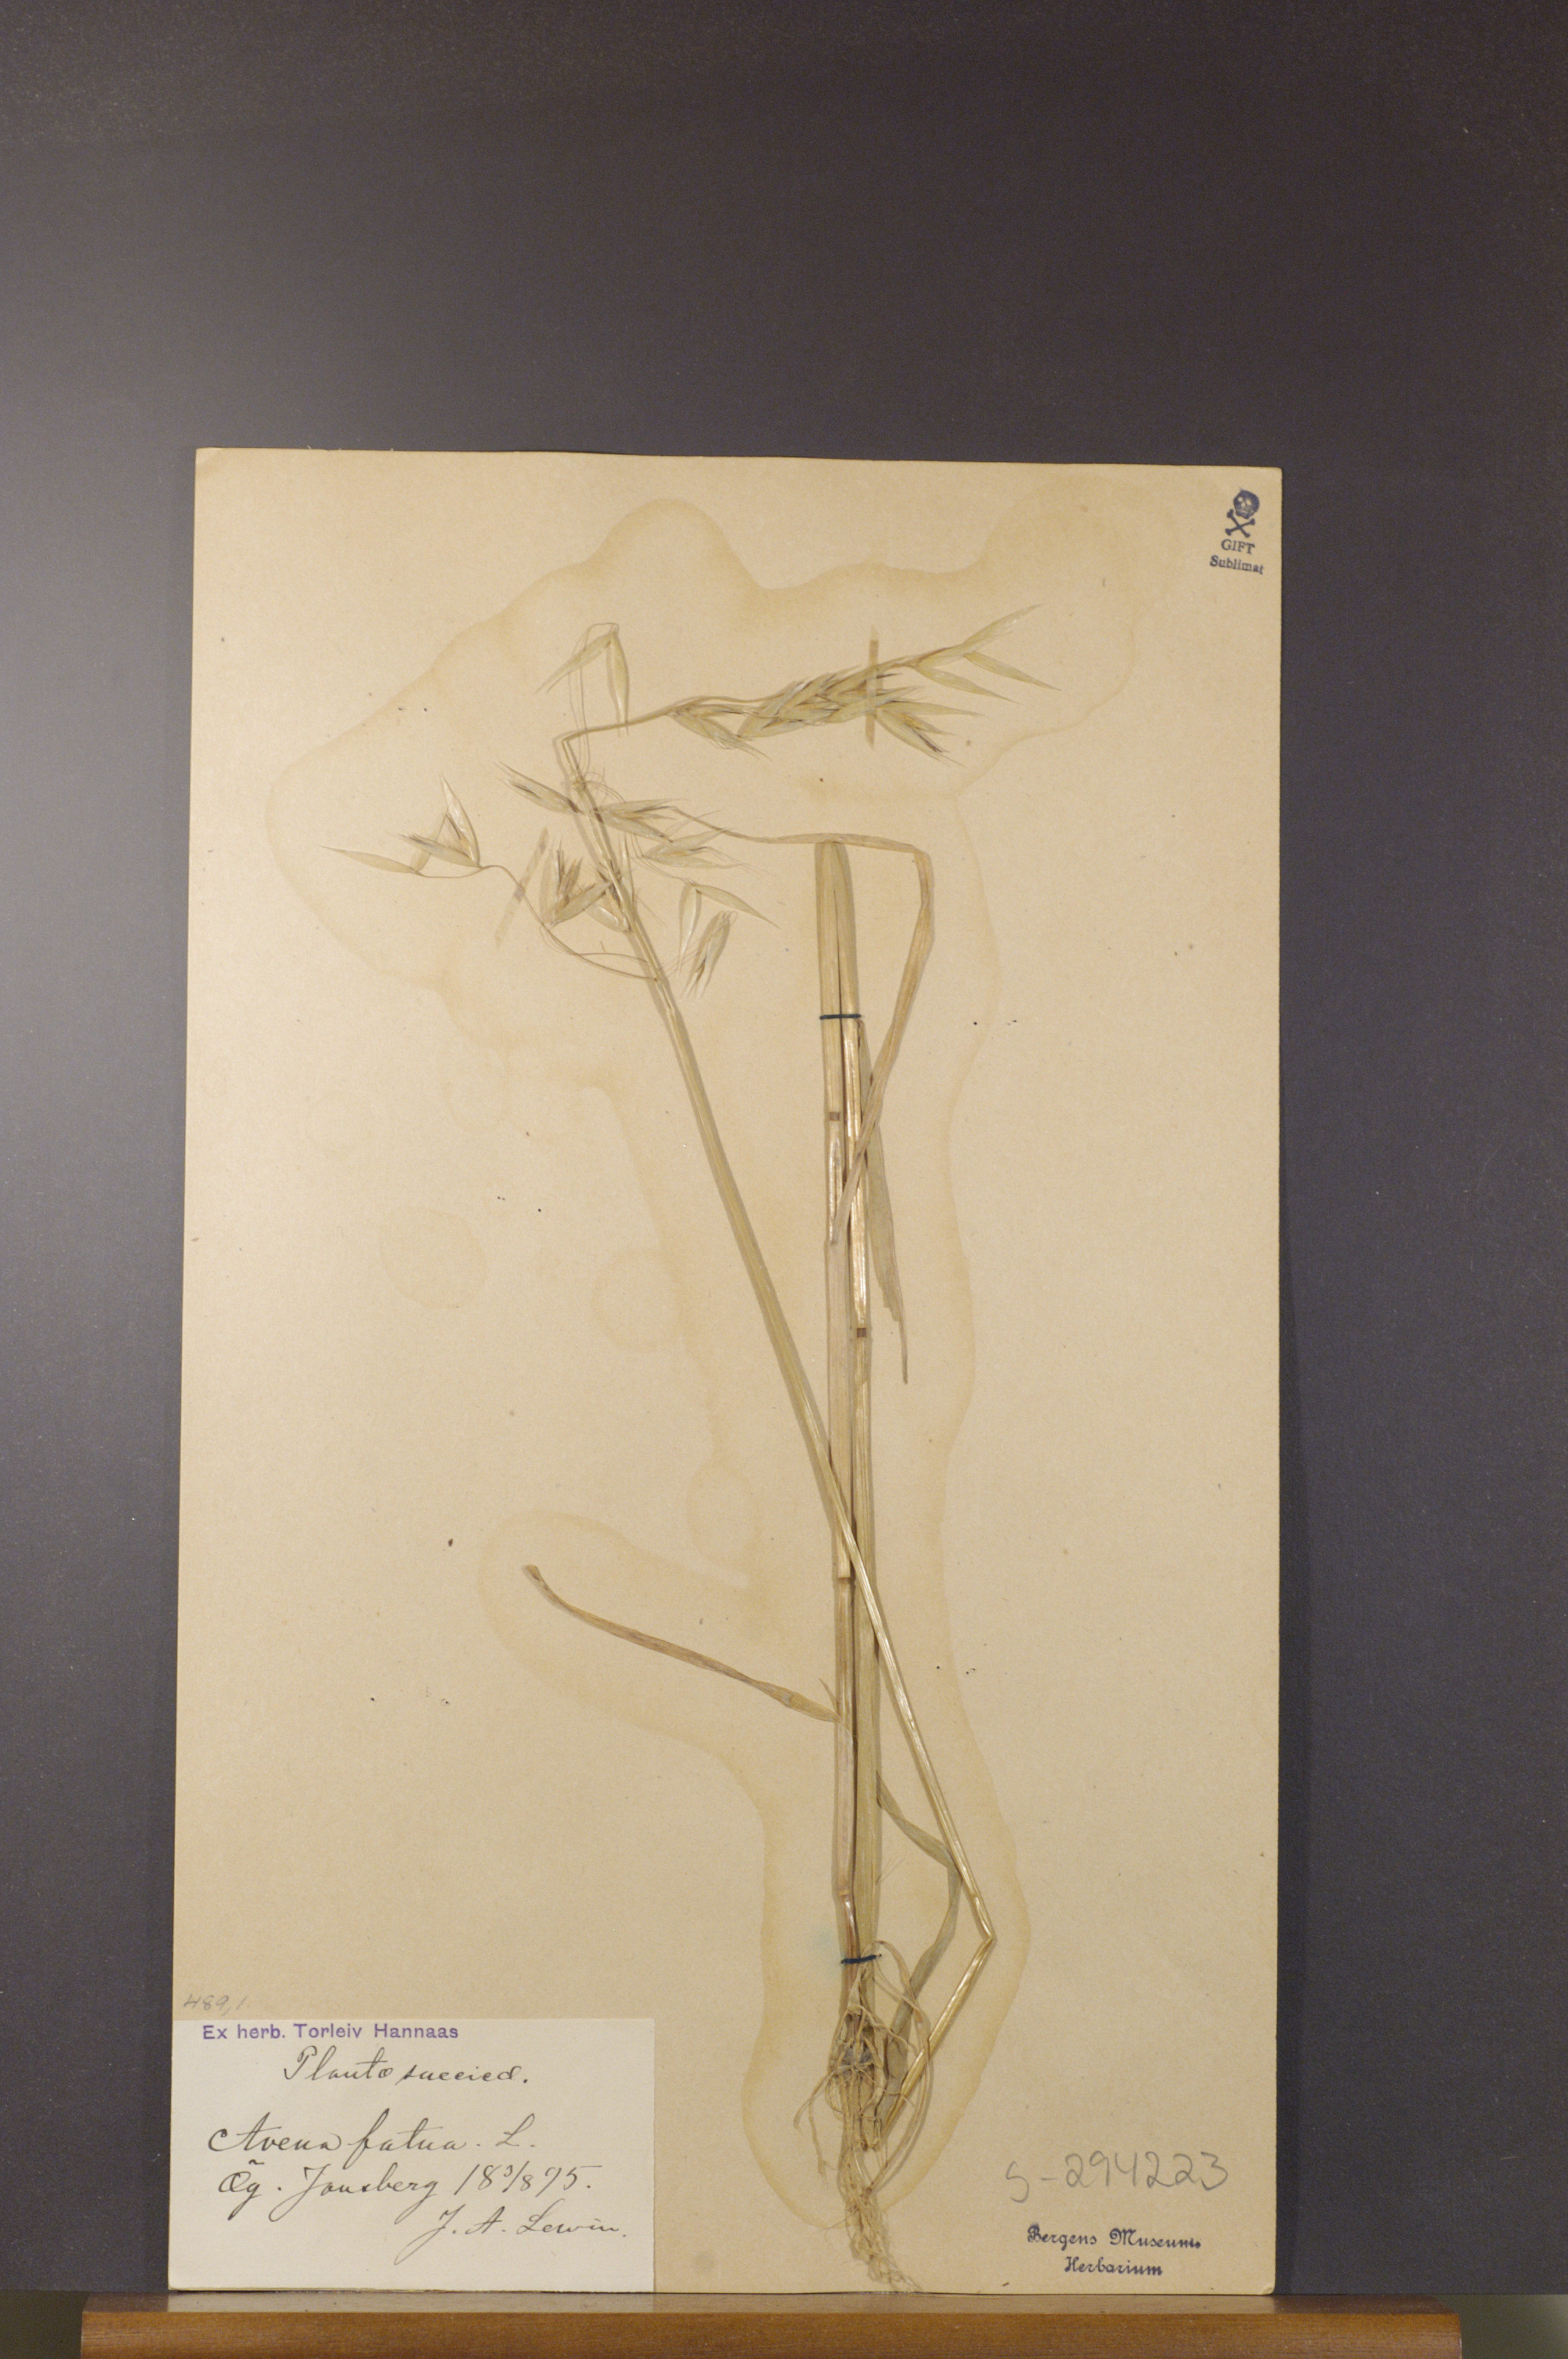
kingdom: Plantae
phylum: Tracheophyta
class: Liliopsida
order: Poales
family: Poaceae
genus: Avena
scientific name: Avena fatua
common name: Wild oat
